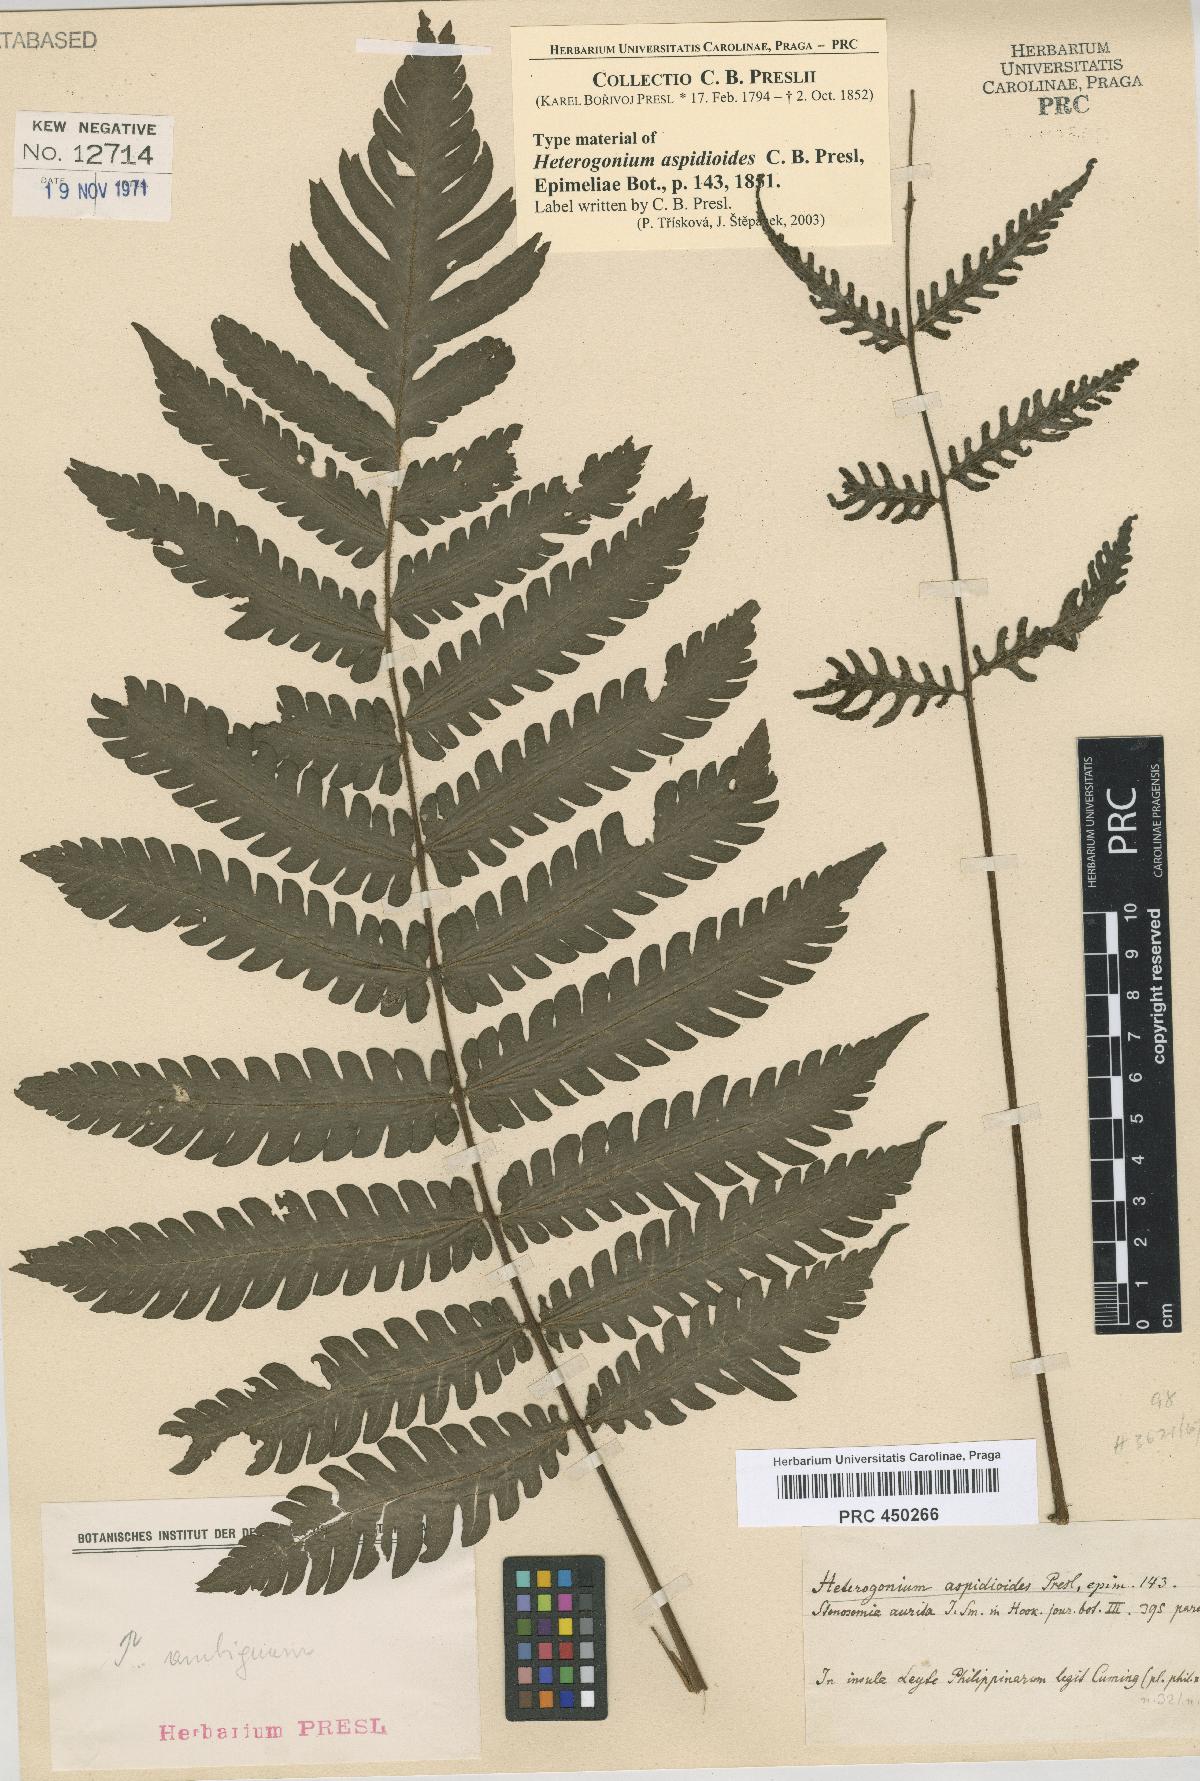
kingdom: Plantae
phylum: Tracheophyta
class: Polypodiopsida
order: Polypodiales
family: Tectariaceae
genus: Tectaria
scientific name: Tectaria aspidioides
